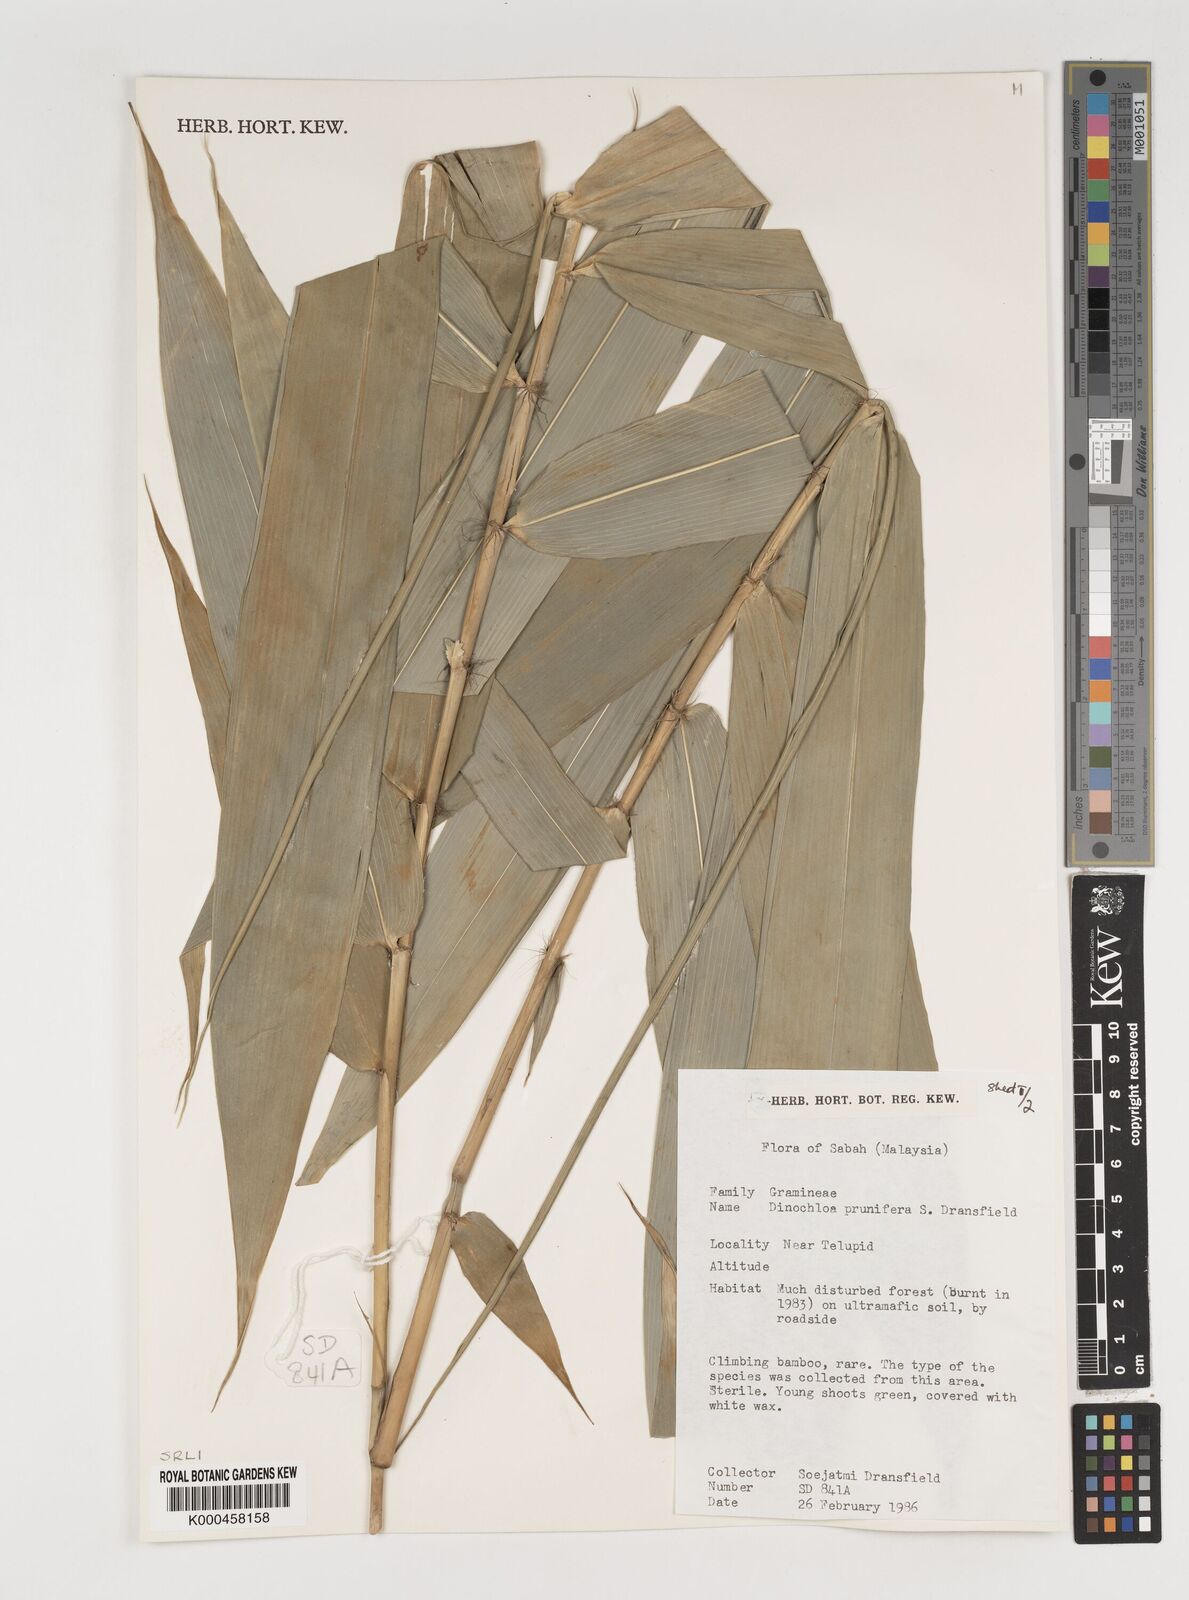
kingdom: Plantae
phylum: Tracheophyta
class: Liliopsida
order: Poales
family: Poaceae
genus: Dinochloa
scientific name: Dinochloa prunifera
